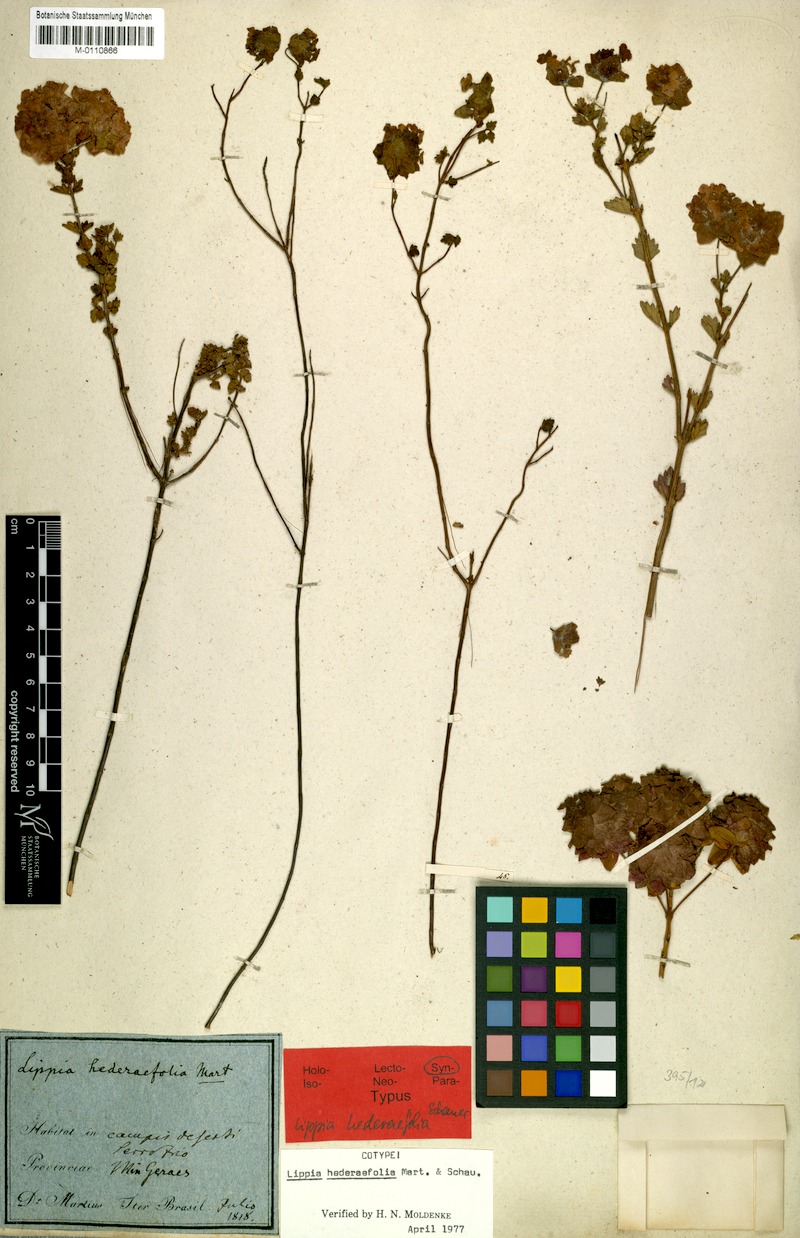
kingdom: Plantae
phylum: Tracheophyta
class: Magnoliopsida
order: Lamiales
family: Verbenaceae
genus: Lippia
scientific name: Lippia hederifolia
